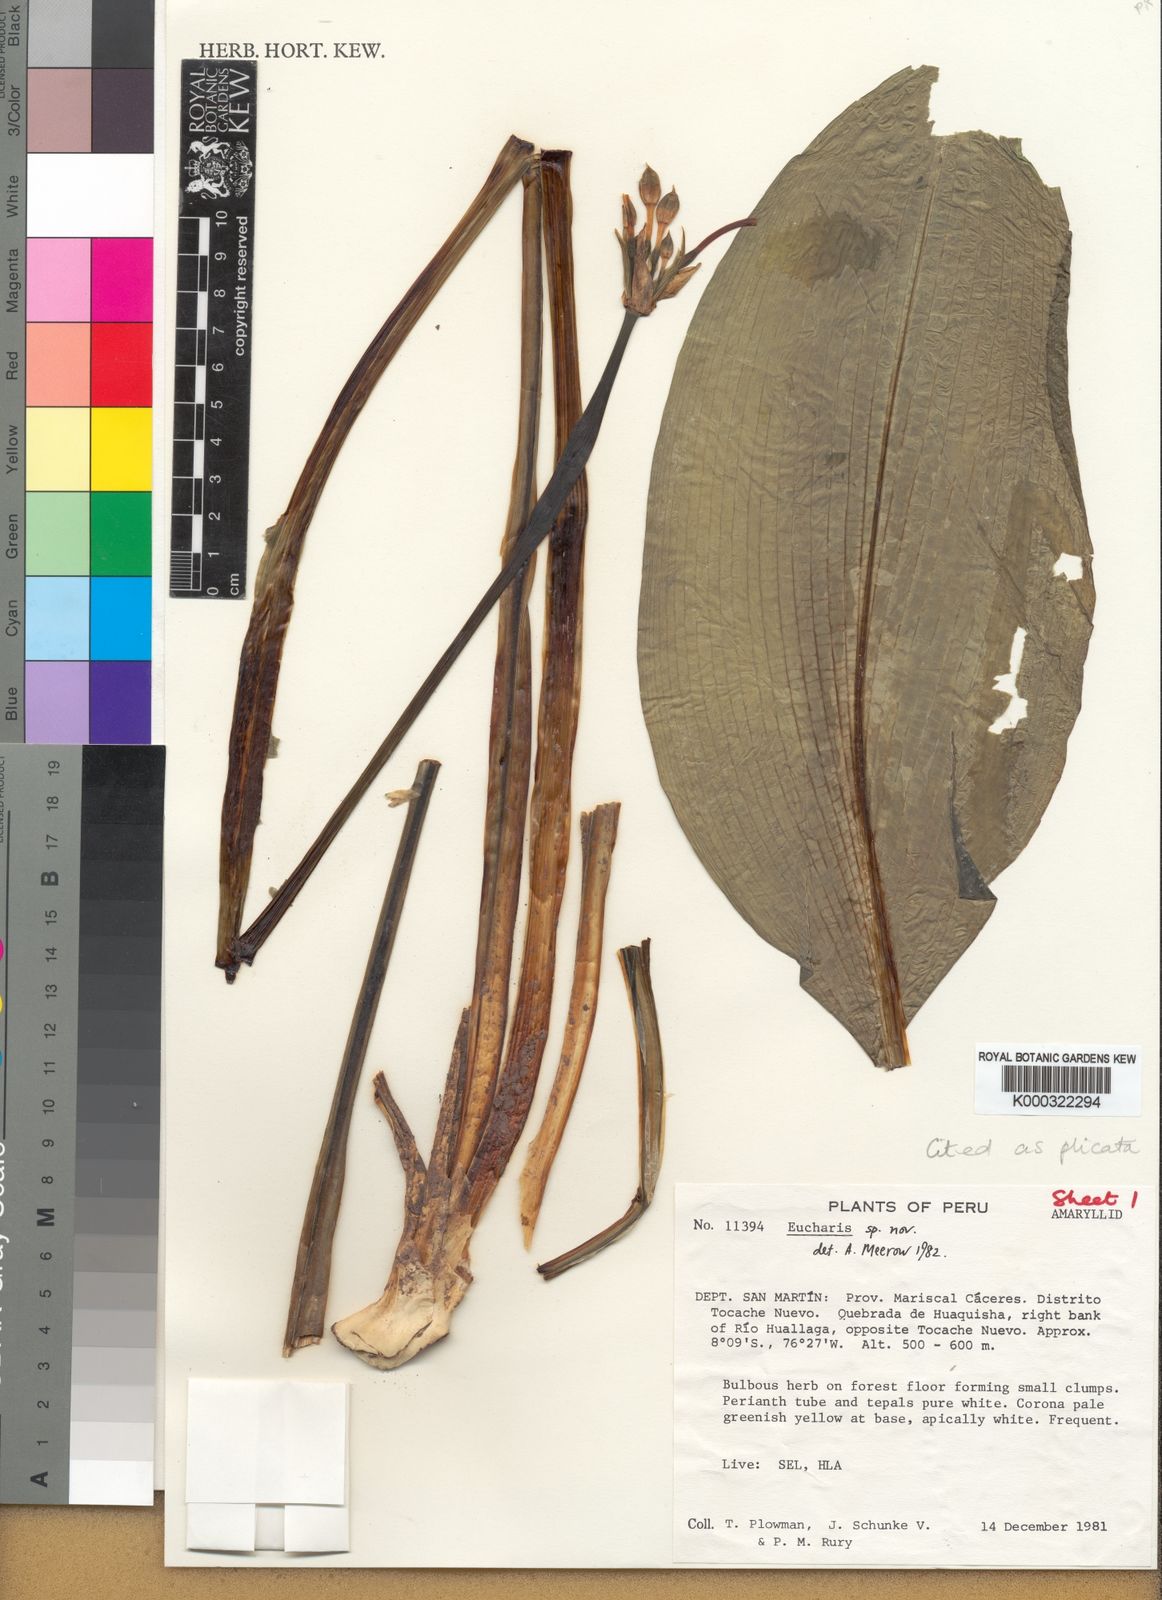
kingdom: Plantae
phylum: Tracheophyta
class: Liliopsida
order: Asparagales
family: Amaryllidaceae
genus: Urceolina
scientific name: Urceolina plicata
